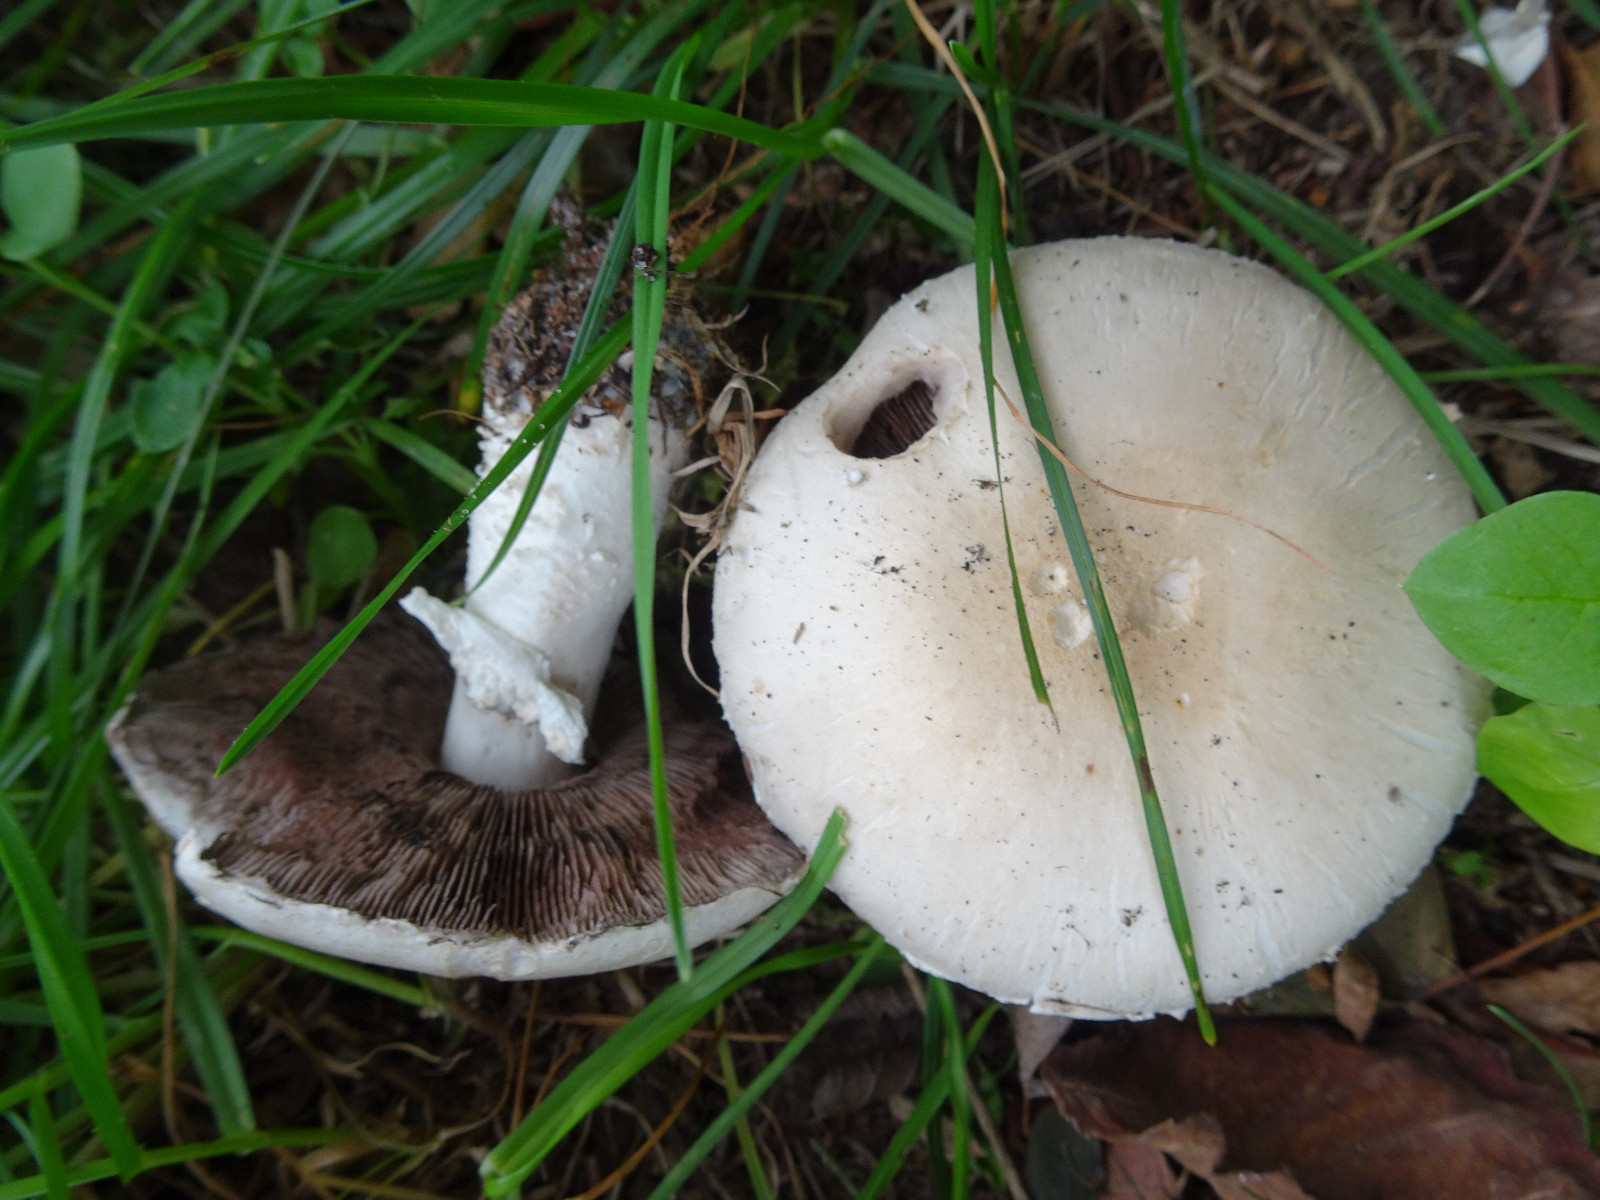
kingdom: Fungi
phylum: Basidiomycota
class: Agaricomycetes
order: Agaricales
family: Agaricaceae
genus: Agaricus
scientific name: Agaricus
